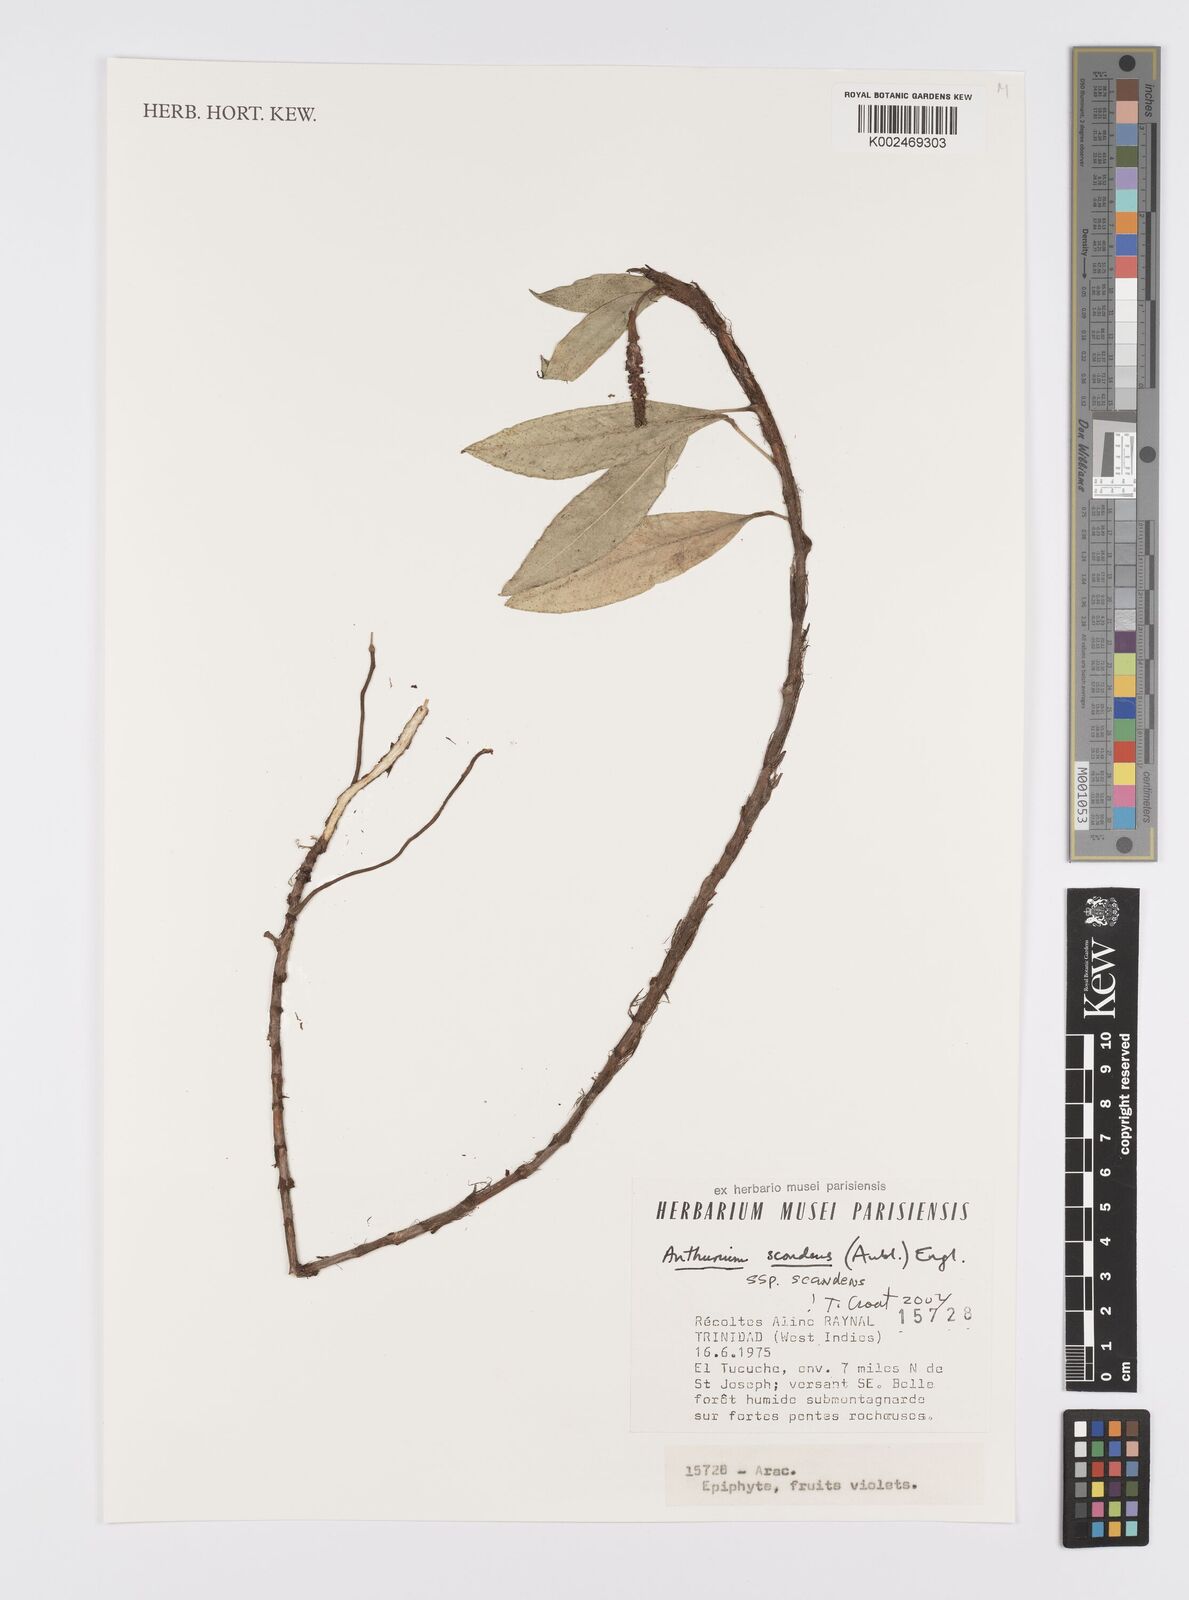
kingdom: Plantae
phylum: Tracheophyta
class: Liliopsida
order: Alismatales
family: Araceae
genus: Anthurium
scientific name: Anthurium scandens
